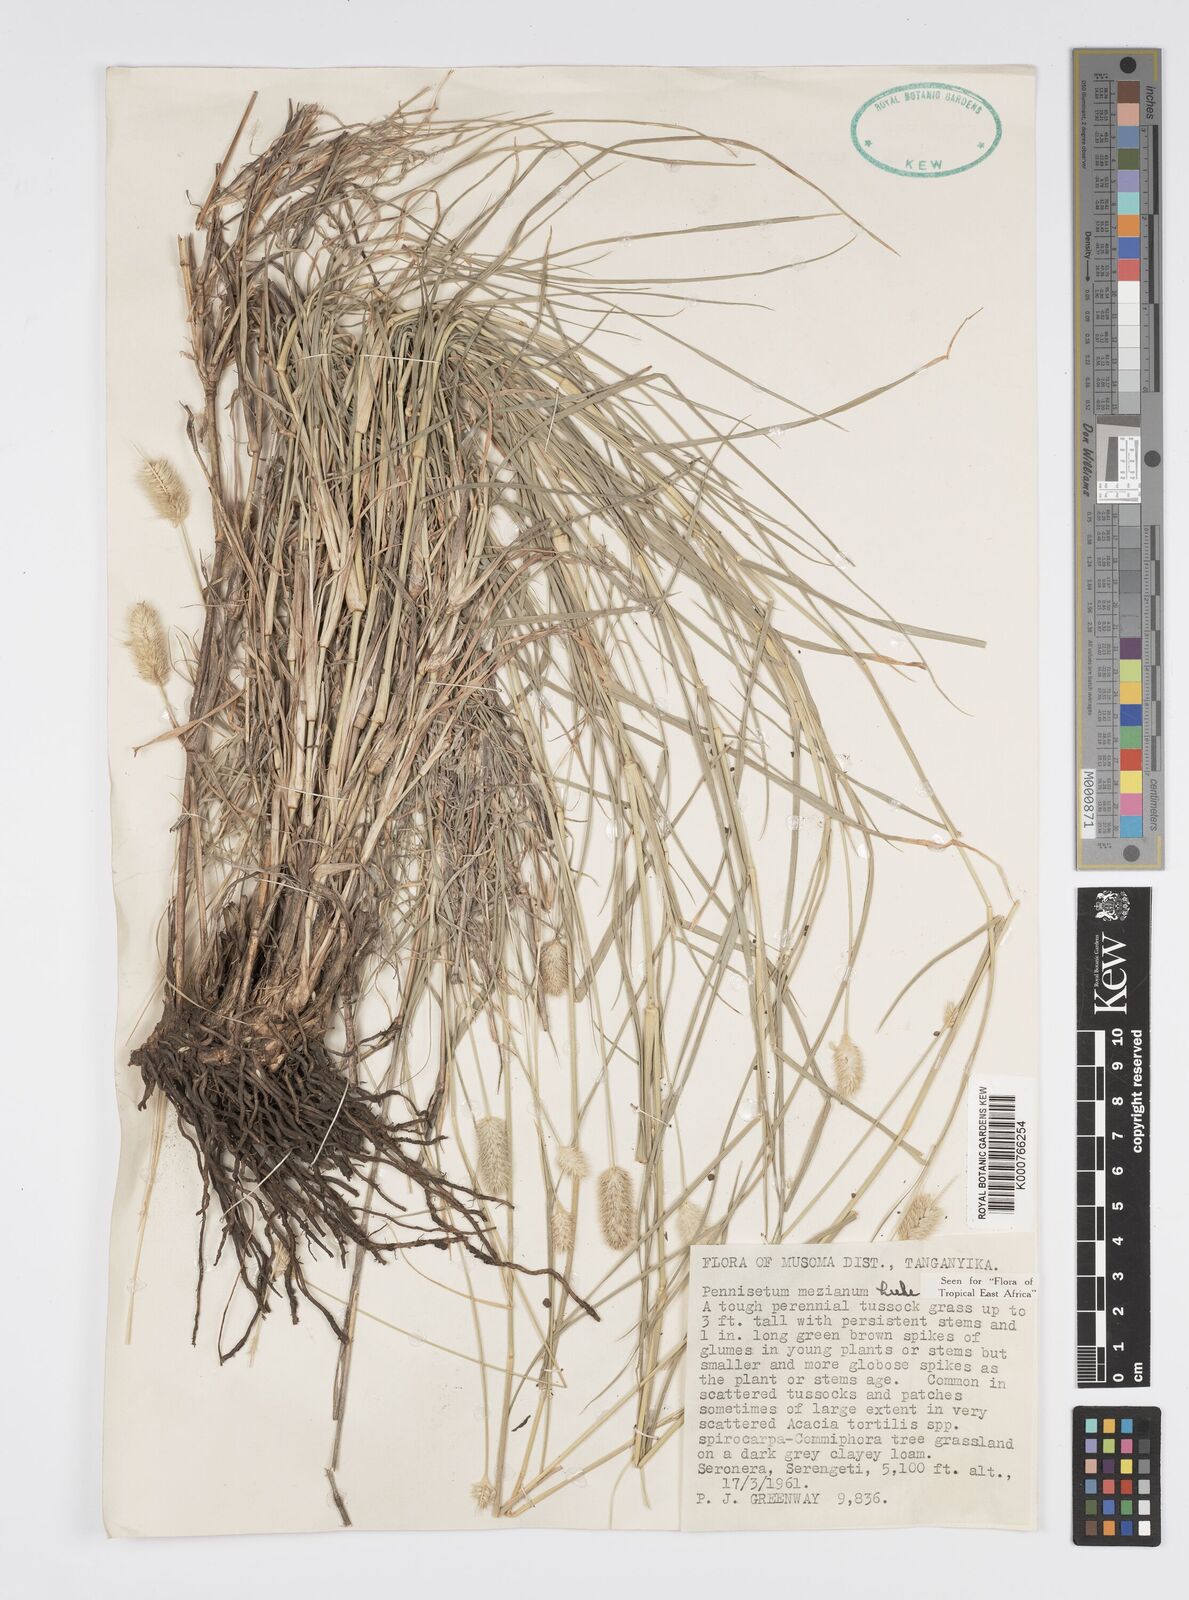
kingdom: Plantae
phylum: Tracheophyta
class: Liliopsida
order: Poales
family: Poaceae
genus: Cenchrus
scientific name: Cenchrus mezianus
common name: Bamboo grass
